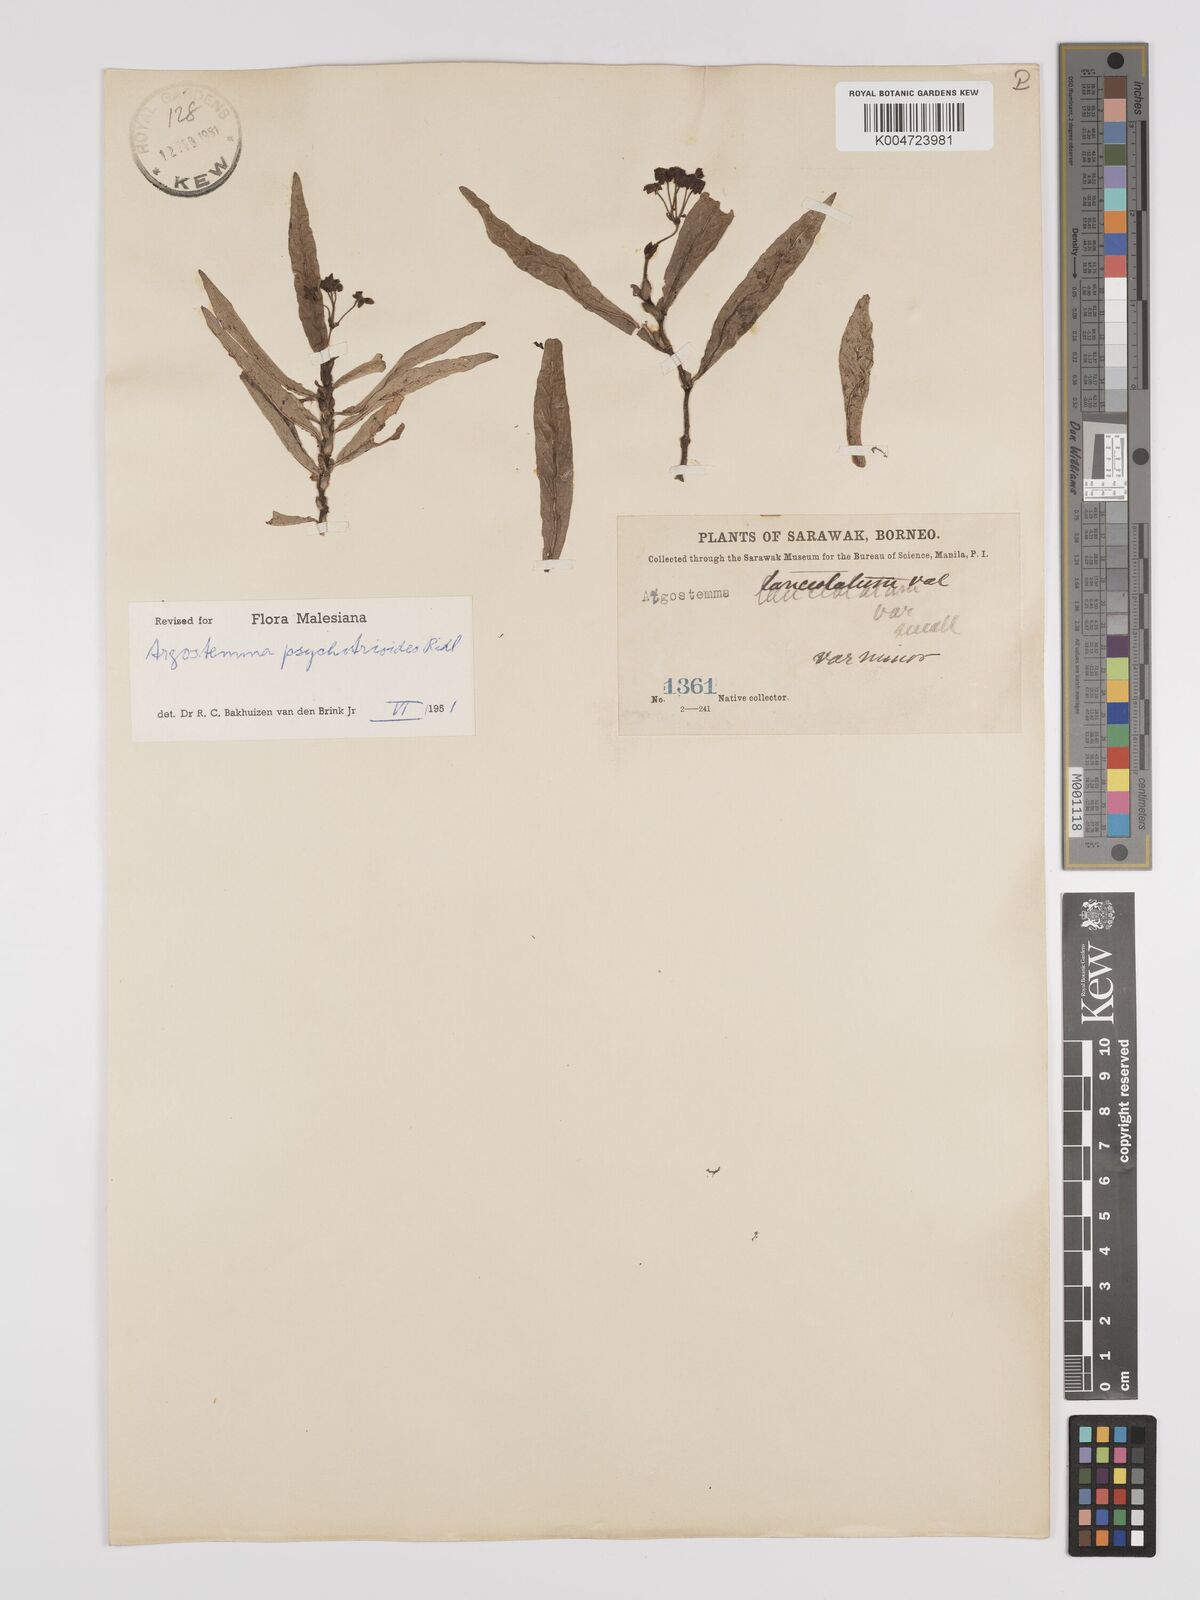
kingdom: Plantae
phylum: Tracheophyta
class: Magnoliopsida
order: Gentianales
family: Rubiaceae
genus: Argostemma
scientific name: Argostemma psychotrioides
